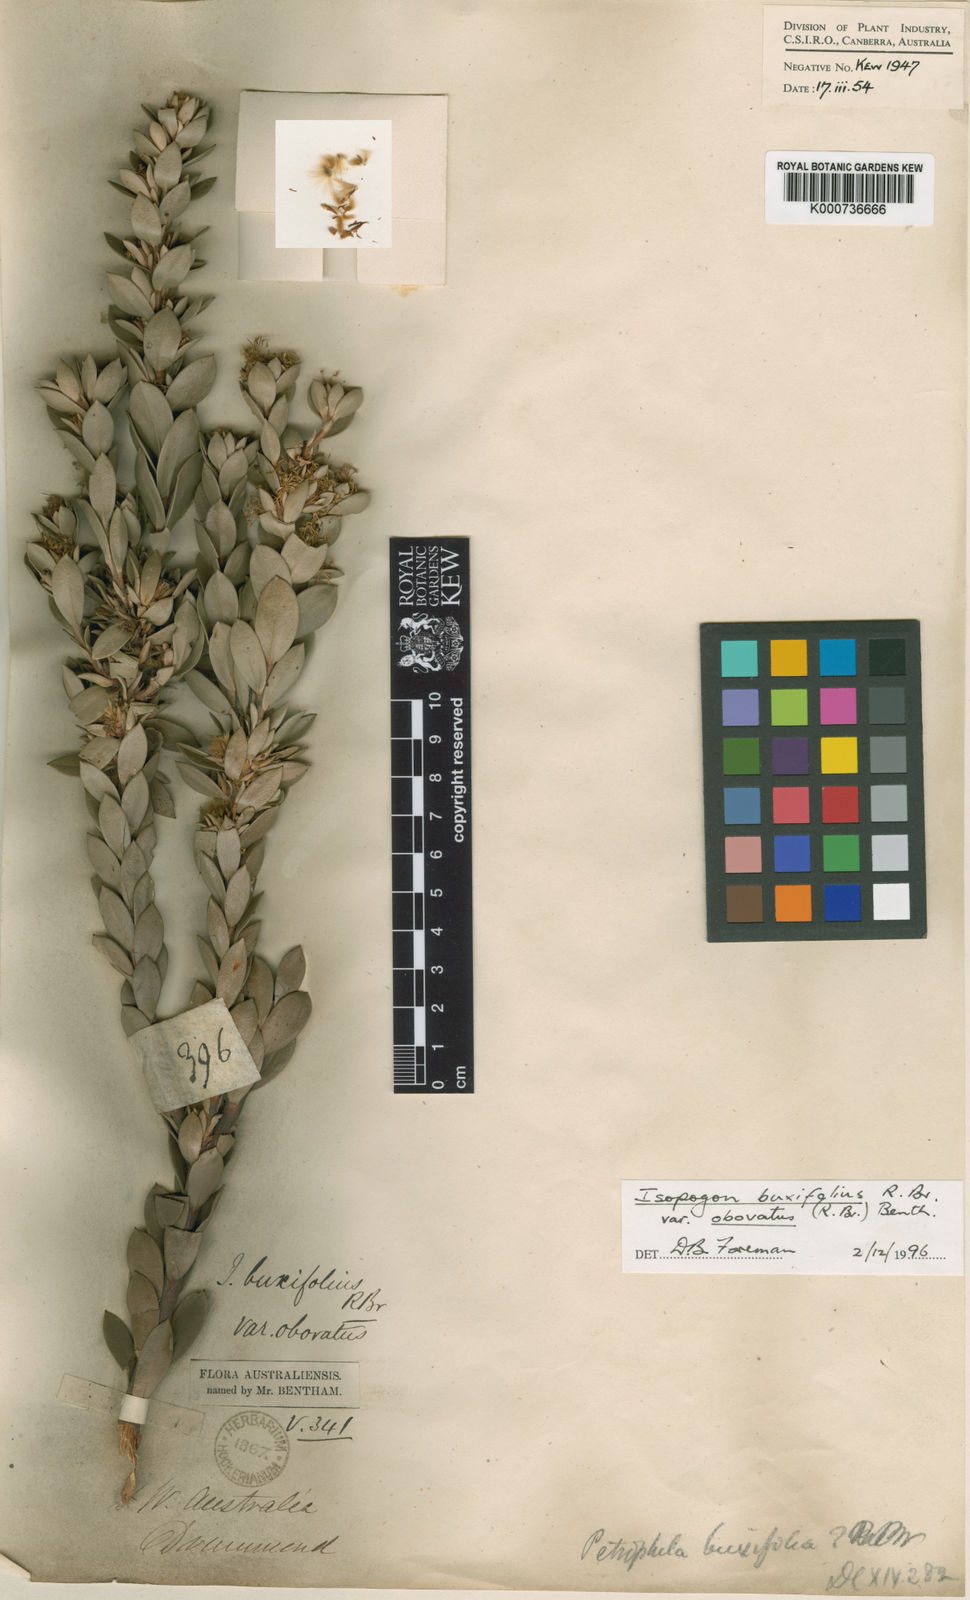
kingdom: Plantae
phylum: Tracheophyta
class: Magnoliopsida
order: Proteales
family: Proteaceae
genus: Isopogon
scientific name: Isopogon buxifolius
